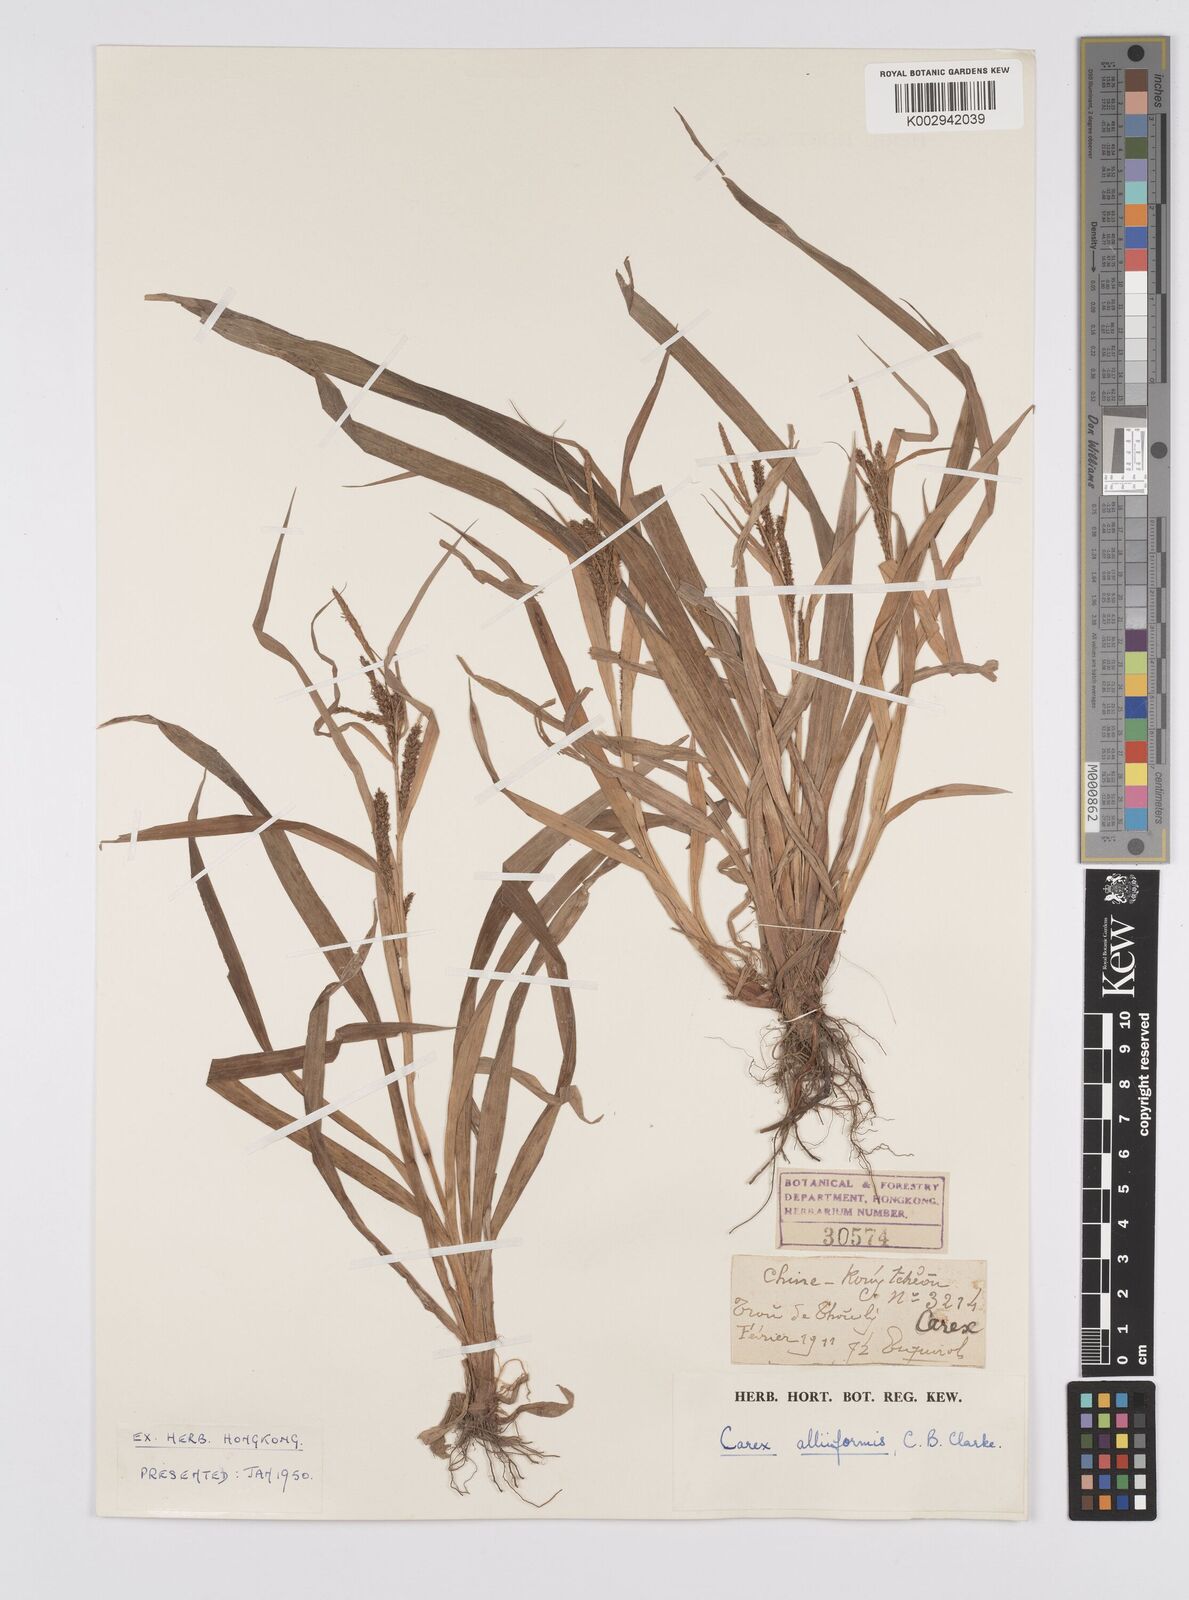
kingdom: Plantae
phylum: Tracheophyta
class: Liliopsida
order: Poales
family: Cyperaceae
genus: Carex
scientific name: Carex alliiformis
